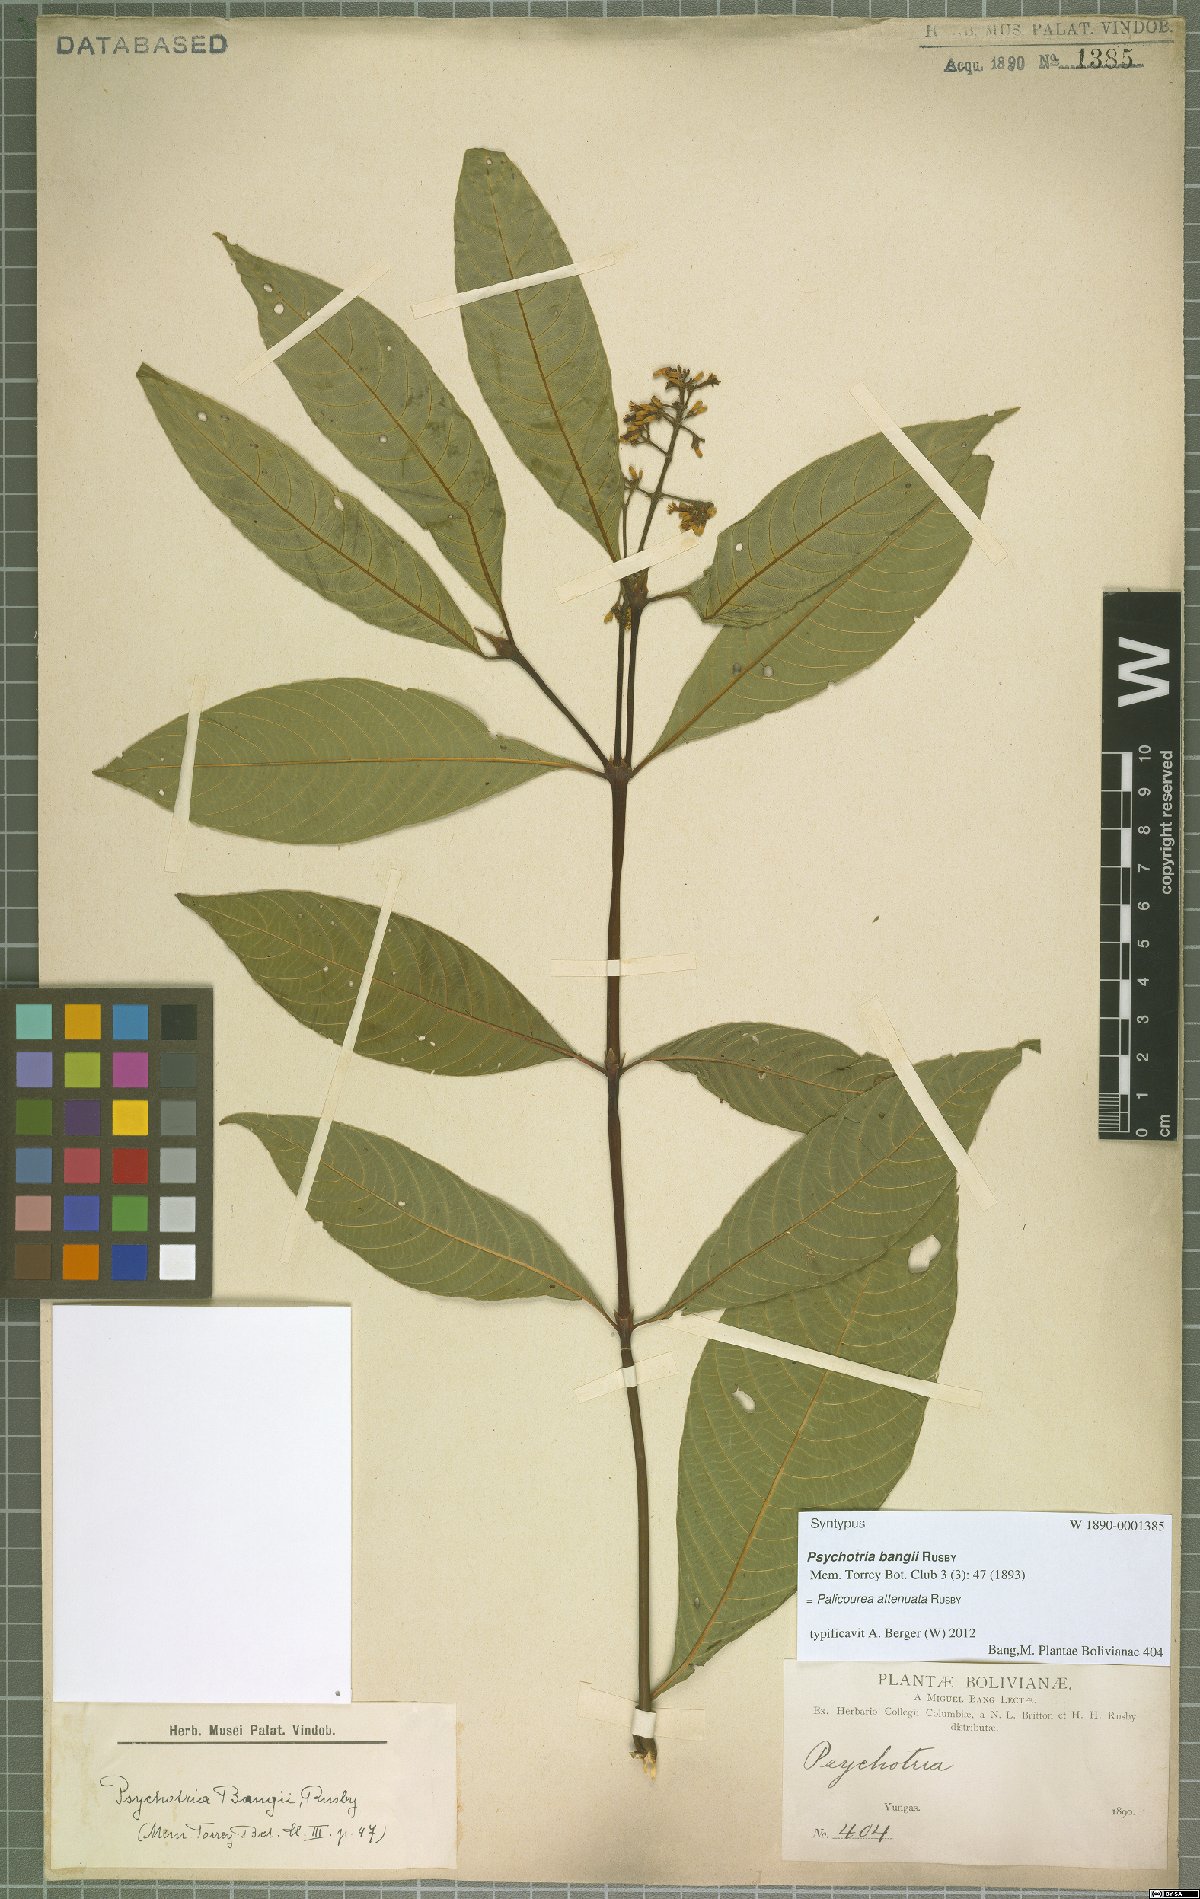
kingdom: Plantae
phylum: Tracheophyta
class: Magnoliopsida
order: Gentianales
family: Rubiaceae
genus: Palicourea
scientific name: Palicourea bangii
